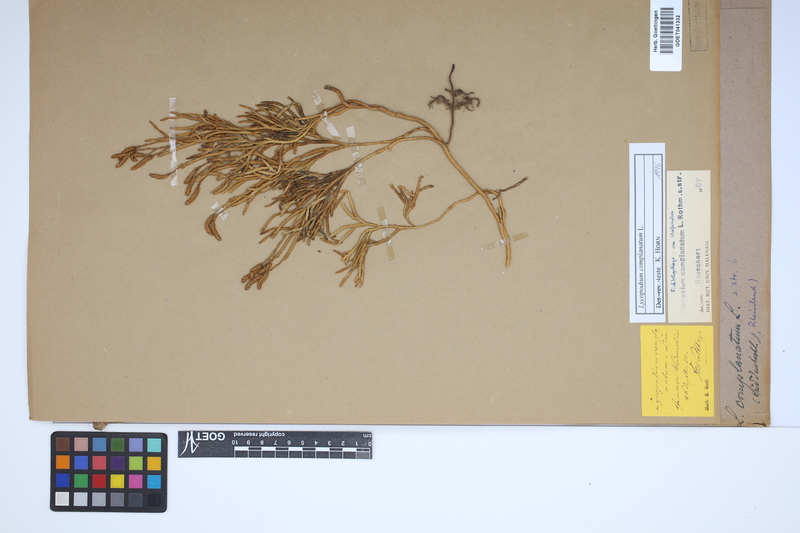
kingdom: Plantae
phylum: Tracheophyta
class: Lycopodiopsida
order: Lycopodiales
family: Lycopodiaceae
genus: Diphasiastrum
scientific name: Diphasiastrum complanatum
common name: Northern running-pine
